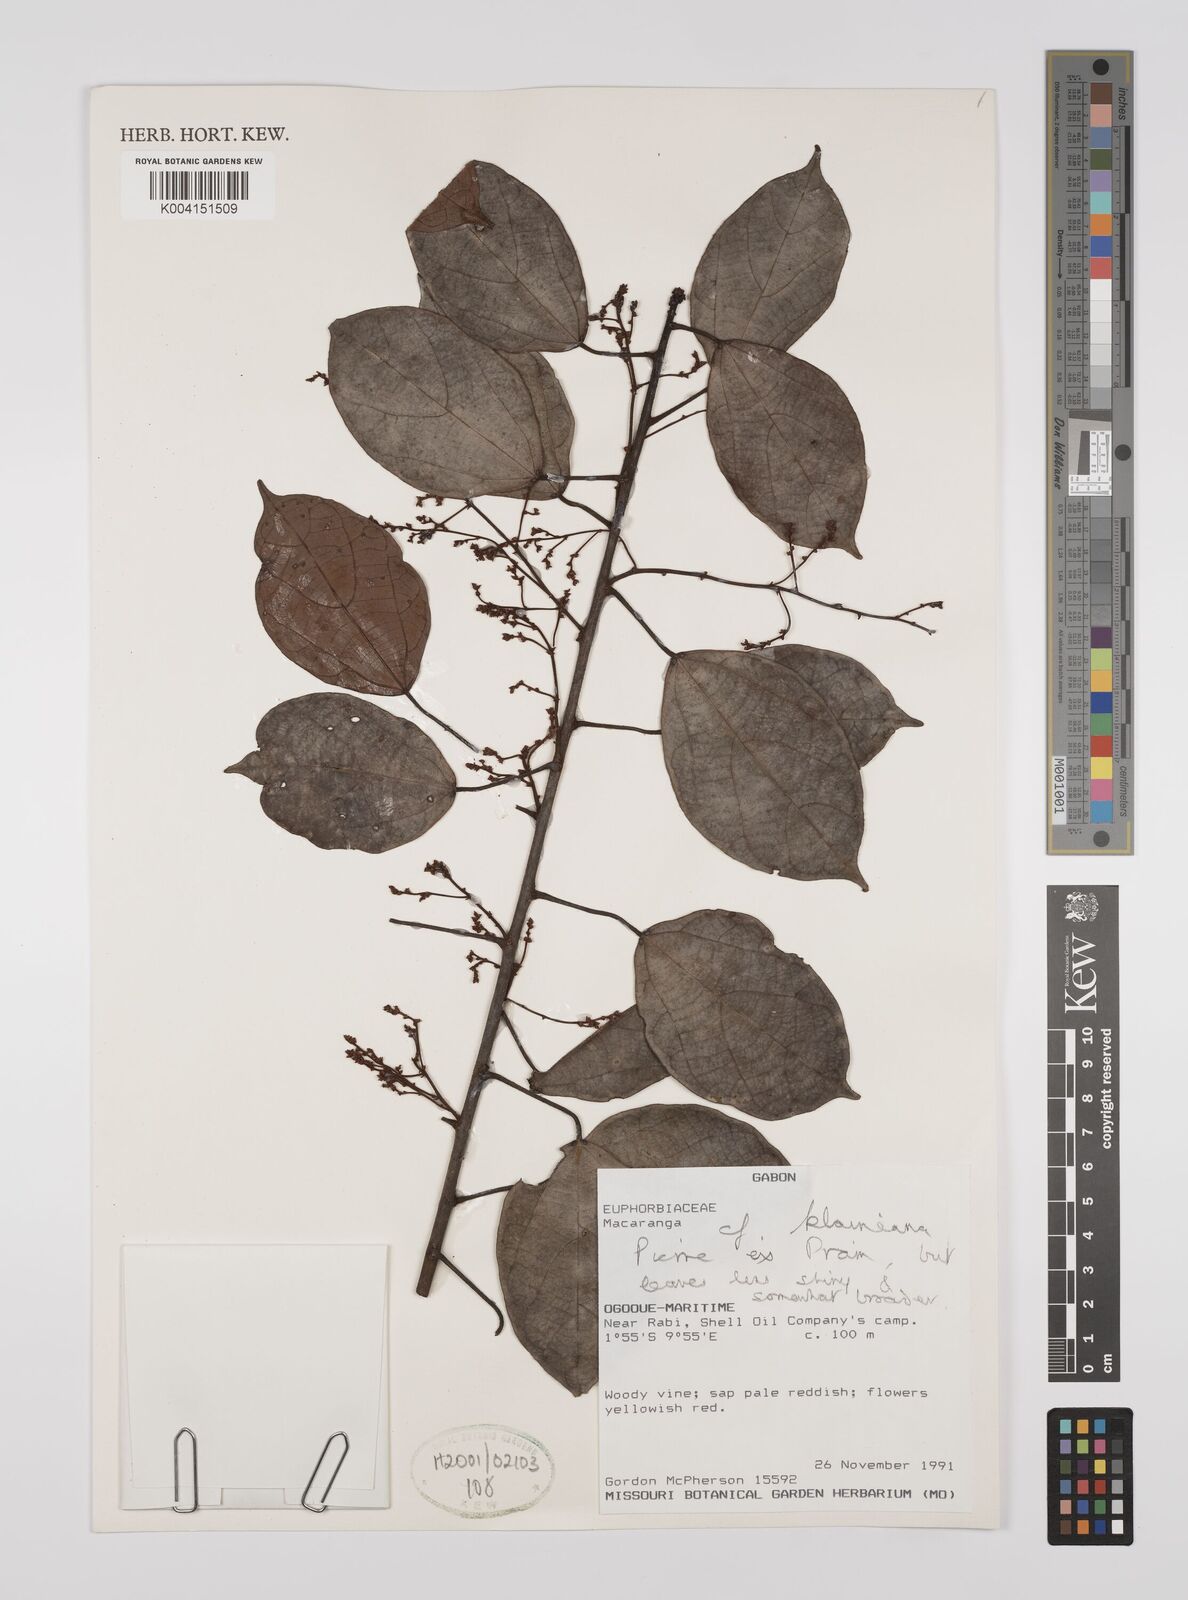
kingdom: Plantae
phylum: Tracheophyta
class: Magnoliopsida
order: Malpighiales
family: Euphorbiaceae
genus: Macaranga
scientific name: Macaranga klaineana
